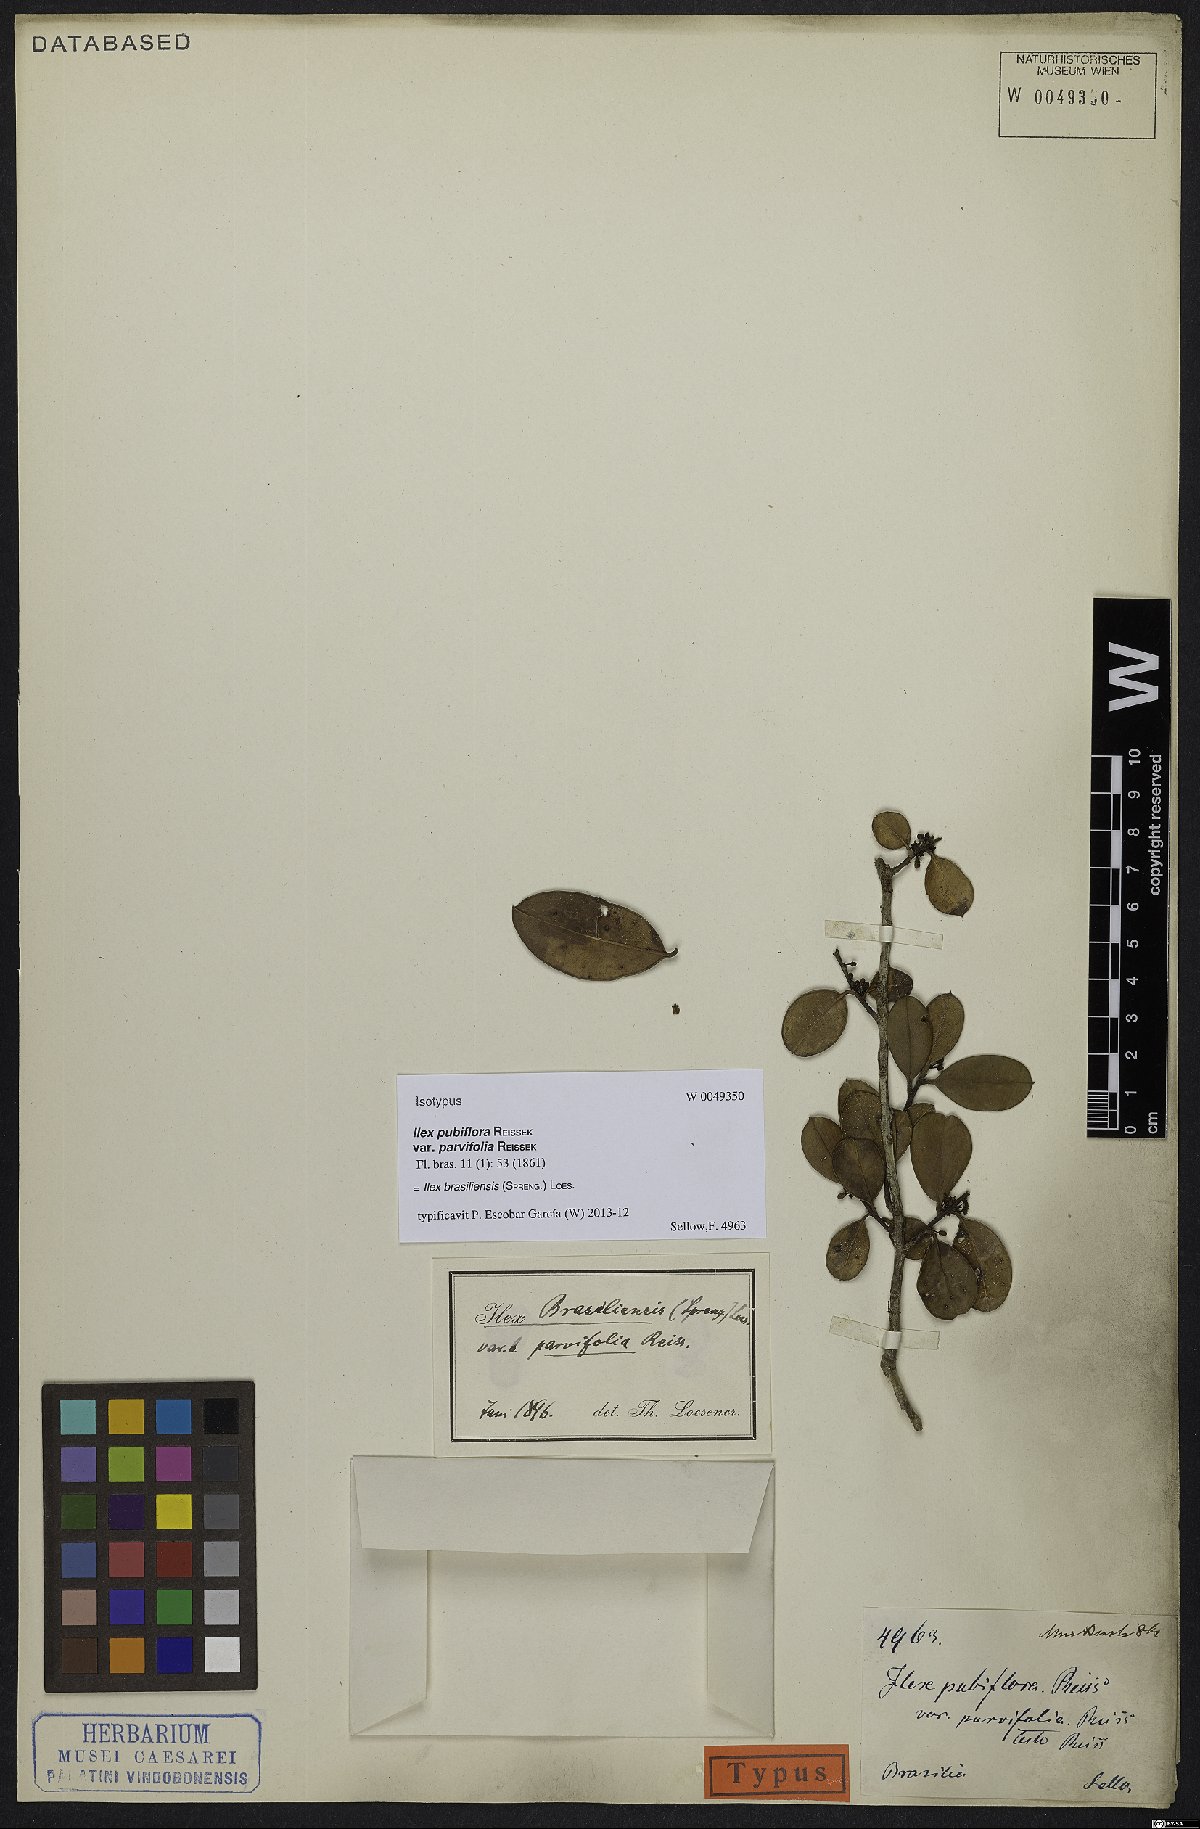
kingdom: Plantae
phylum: Tracheophyta
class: Magnoliopsida
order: Aquifoliales
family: Aquifoliaceae
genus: Ilex
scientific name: Ilex brasiliensis
